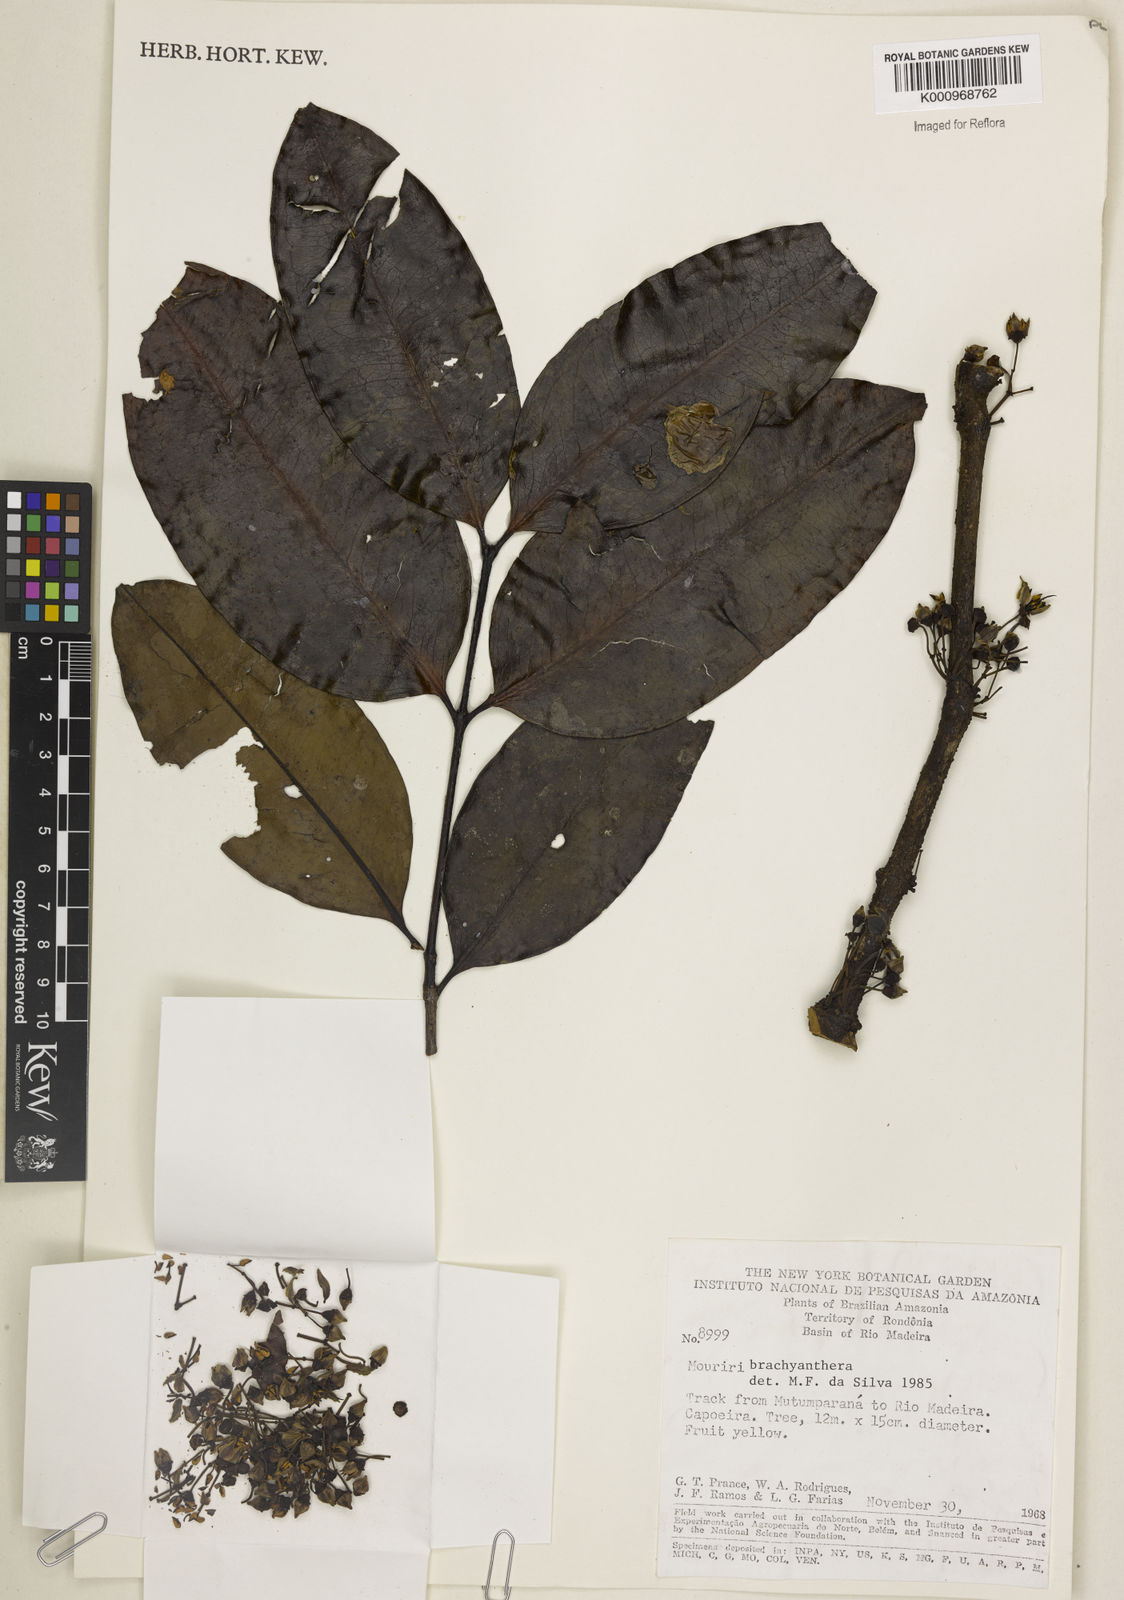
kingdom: Plantae
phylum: Tracheophyta
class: Magnoliopsida
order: Myrtales
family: Melastomataceae
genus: Mouriri
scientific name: Mouriri brachyanthera
